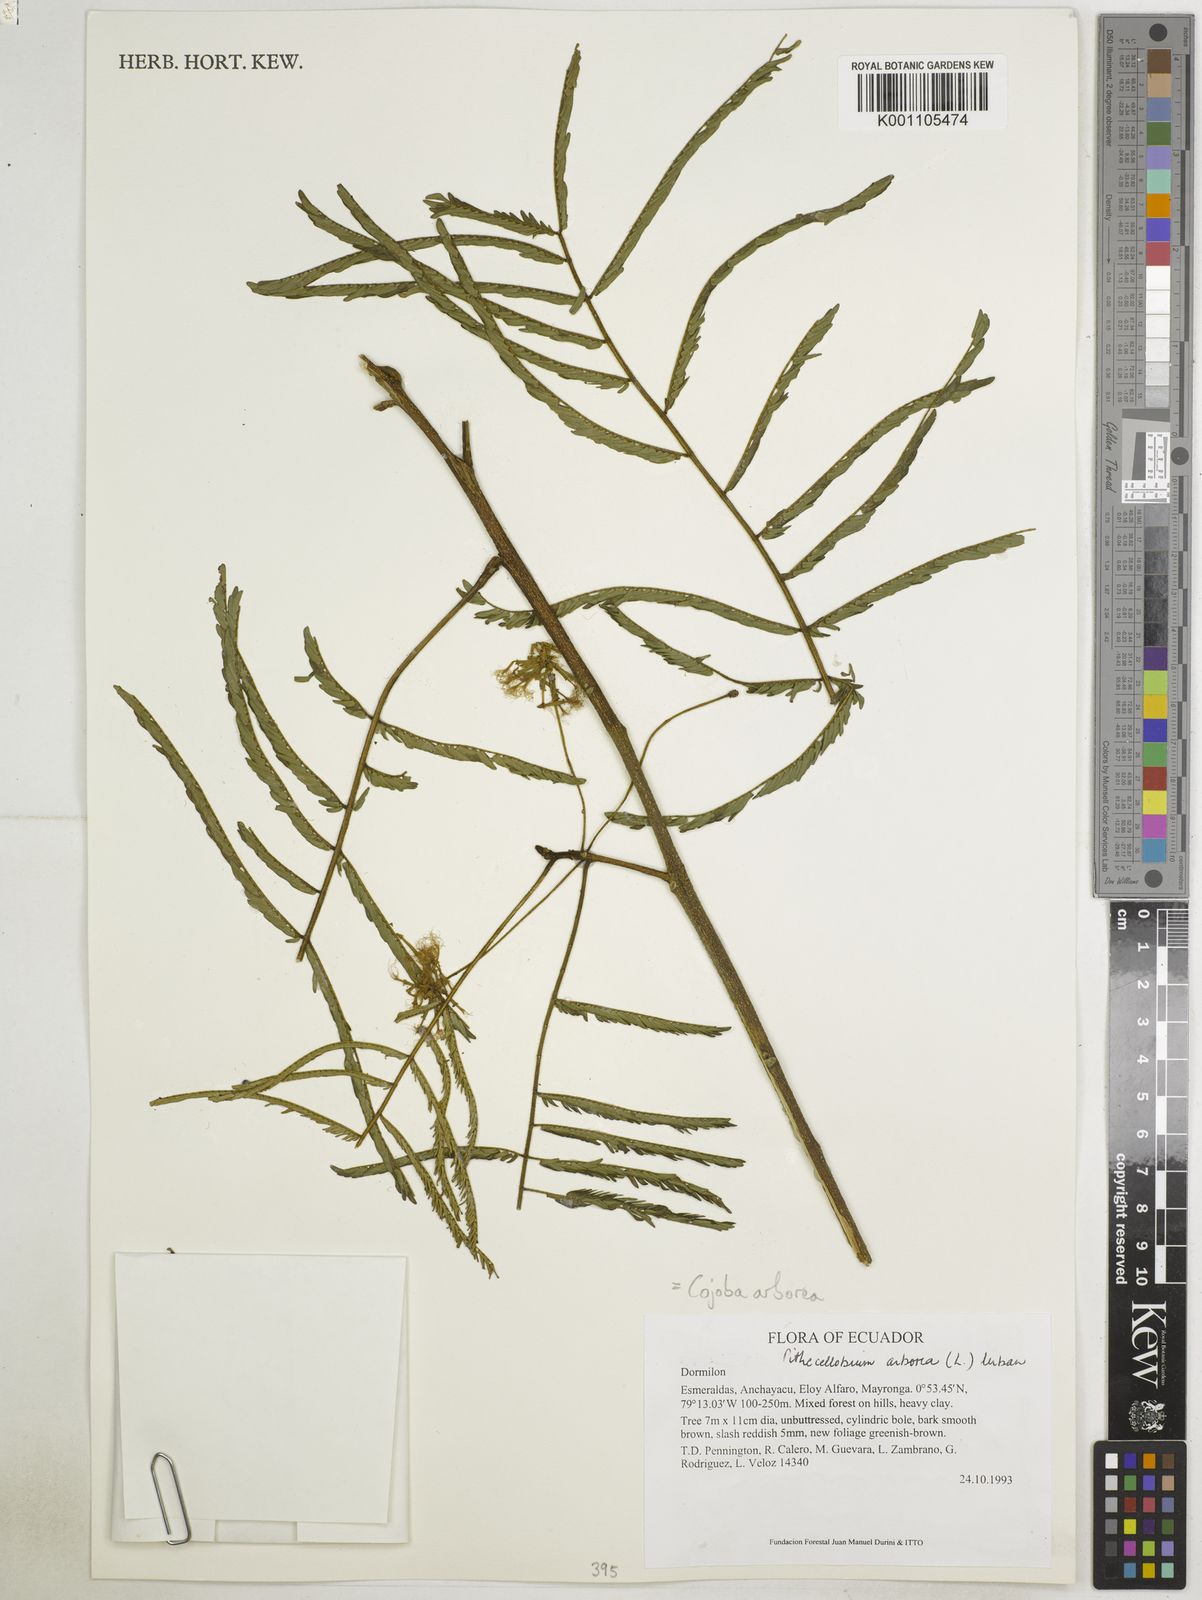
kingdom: Plantae
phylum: Tracheophyta
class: Magnoliopsida
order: Fabales
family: Fabaceae
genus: Cojoba
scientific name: Cojoba arborea
